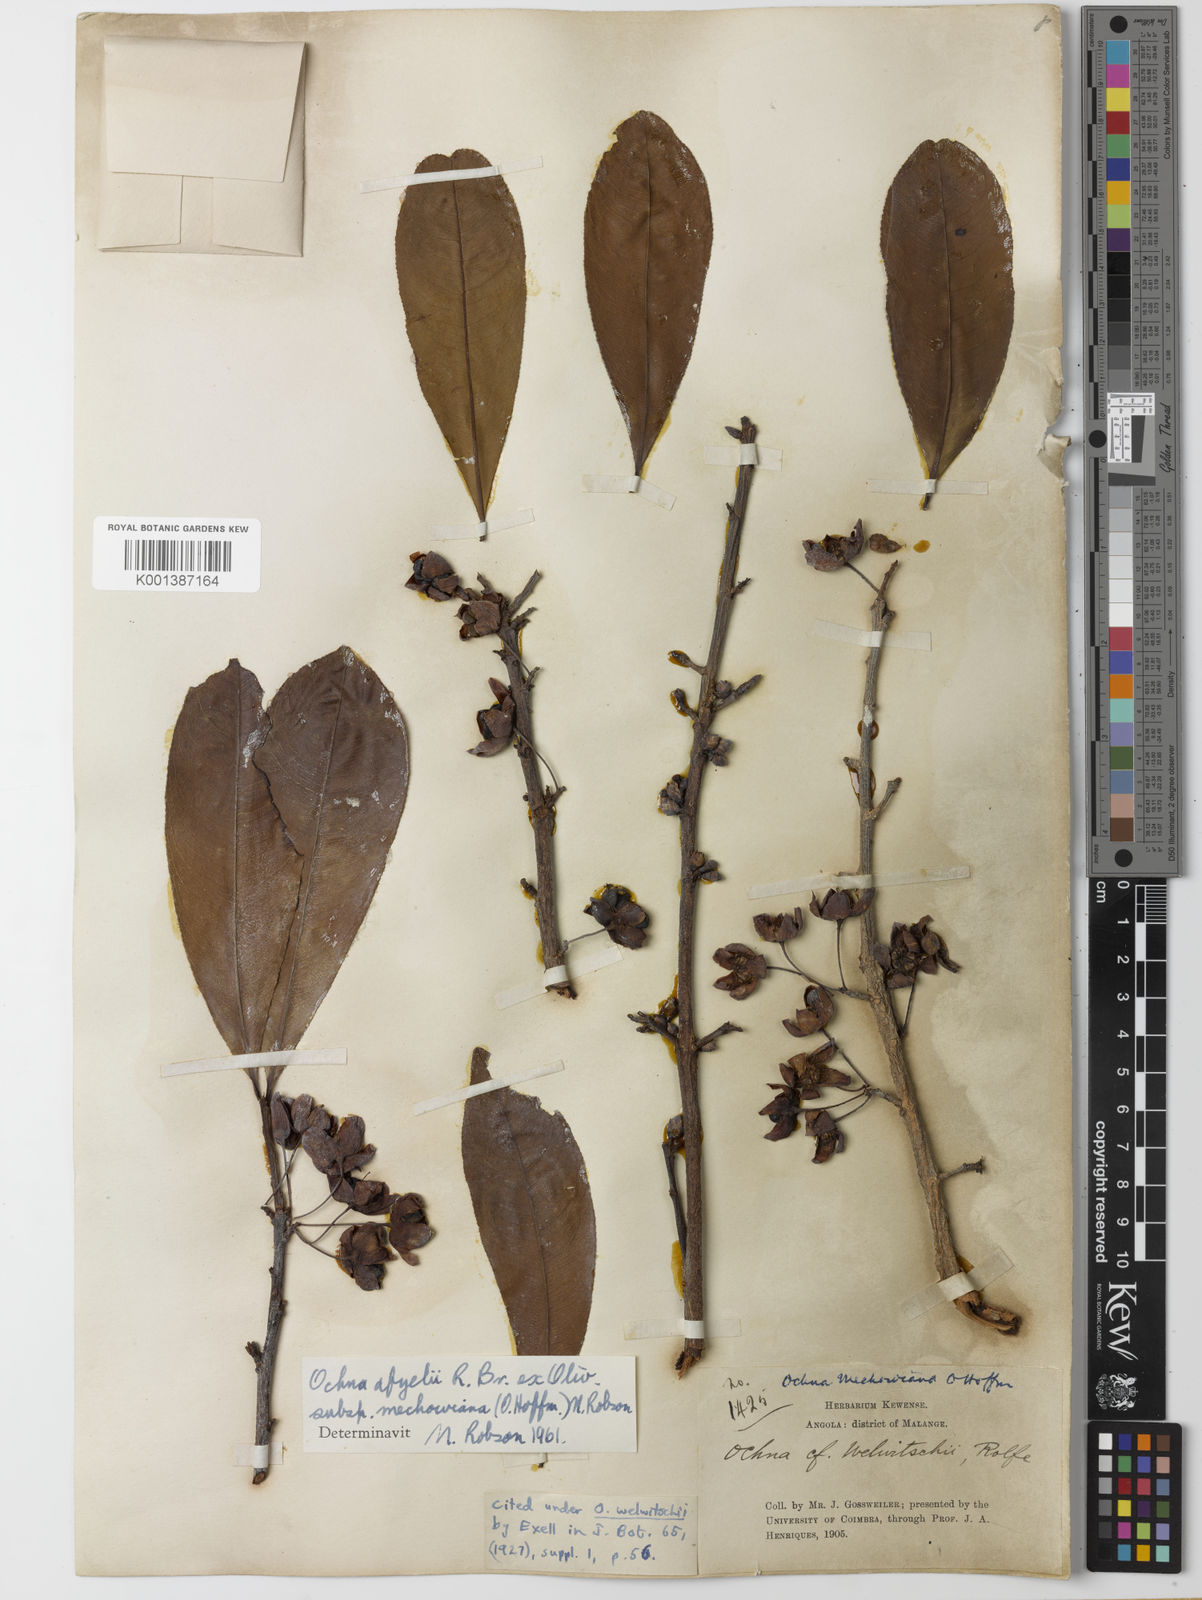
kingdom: Plantae
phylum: Tracheophyta
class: Magnoliopsida
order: Malpighiales
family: Ochnaceae
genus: Ochna
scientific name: Ochna
